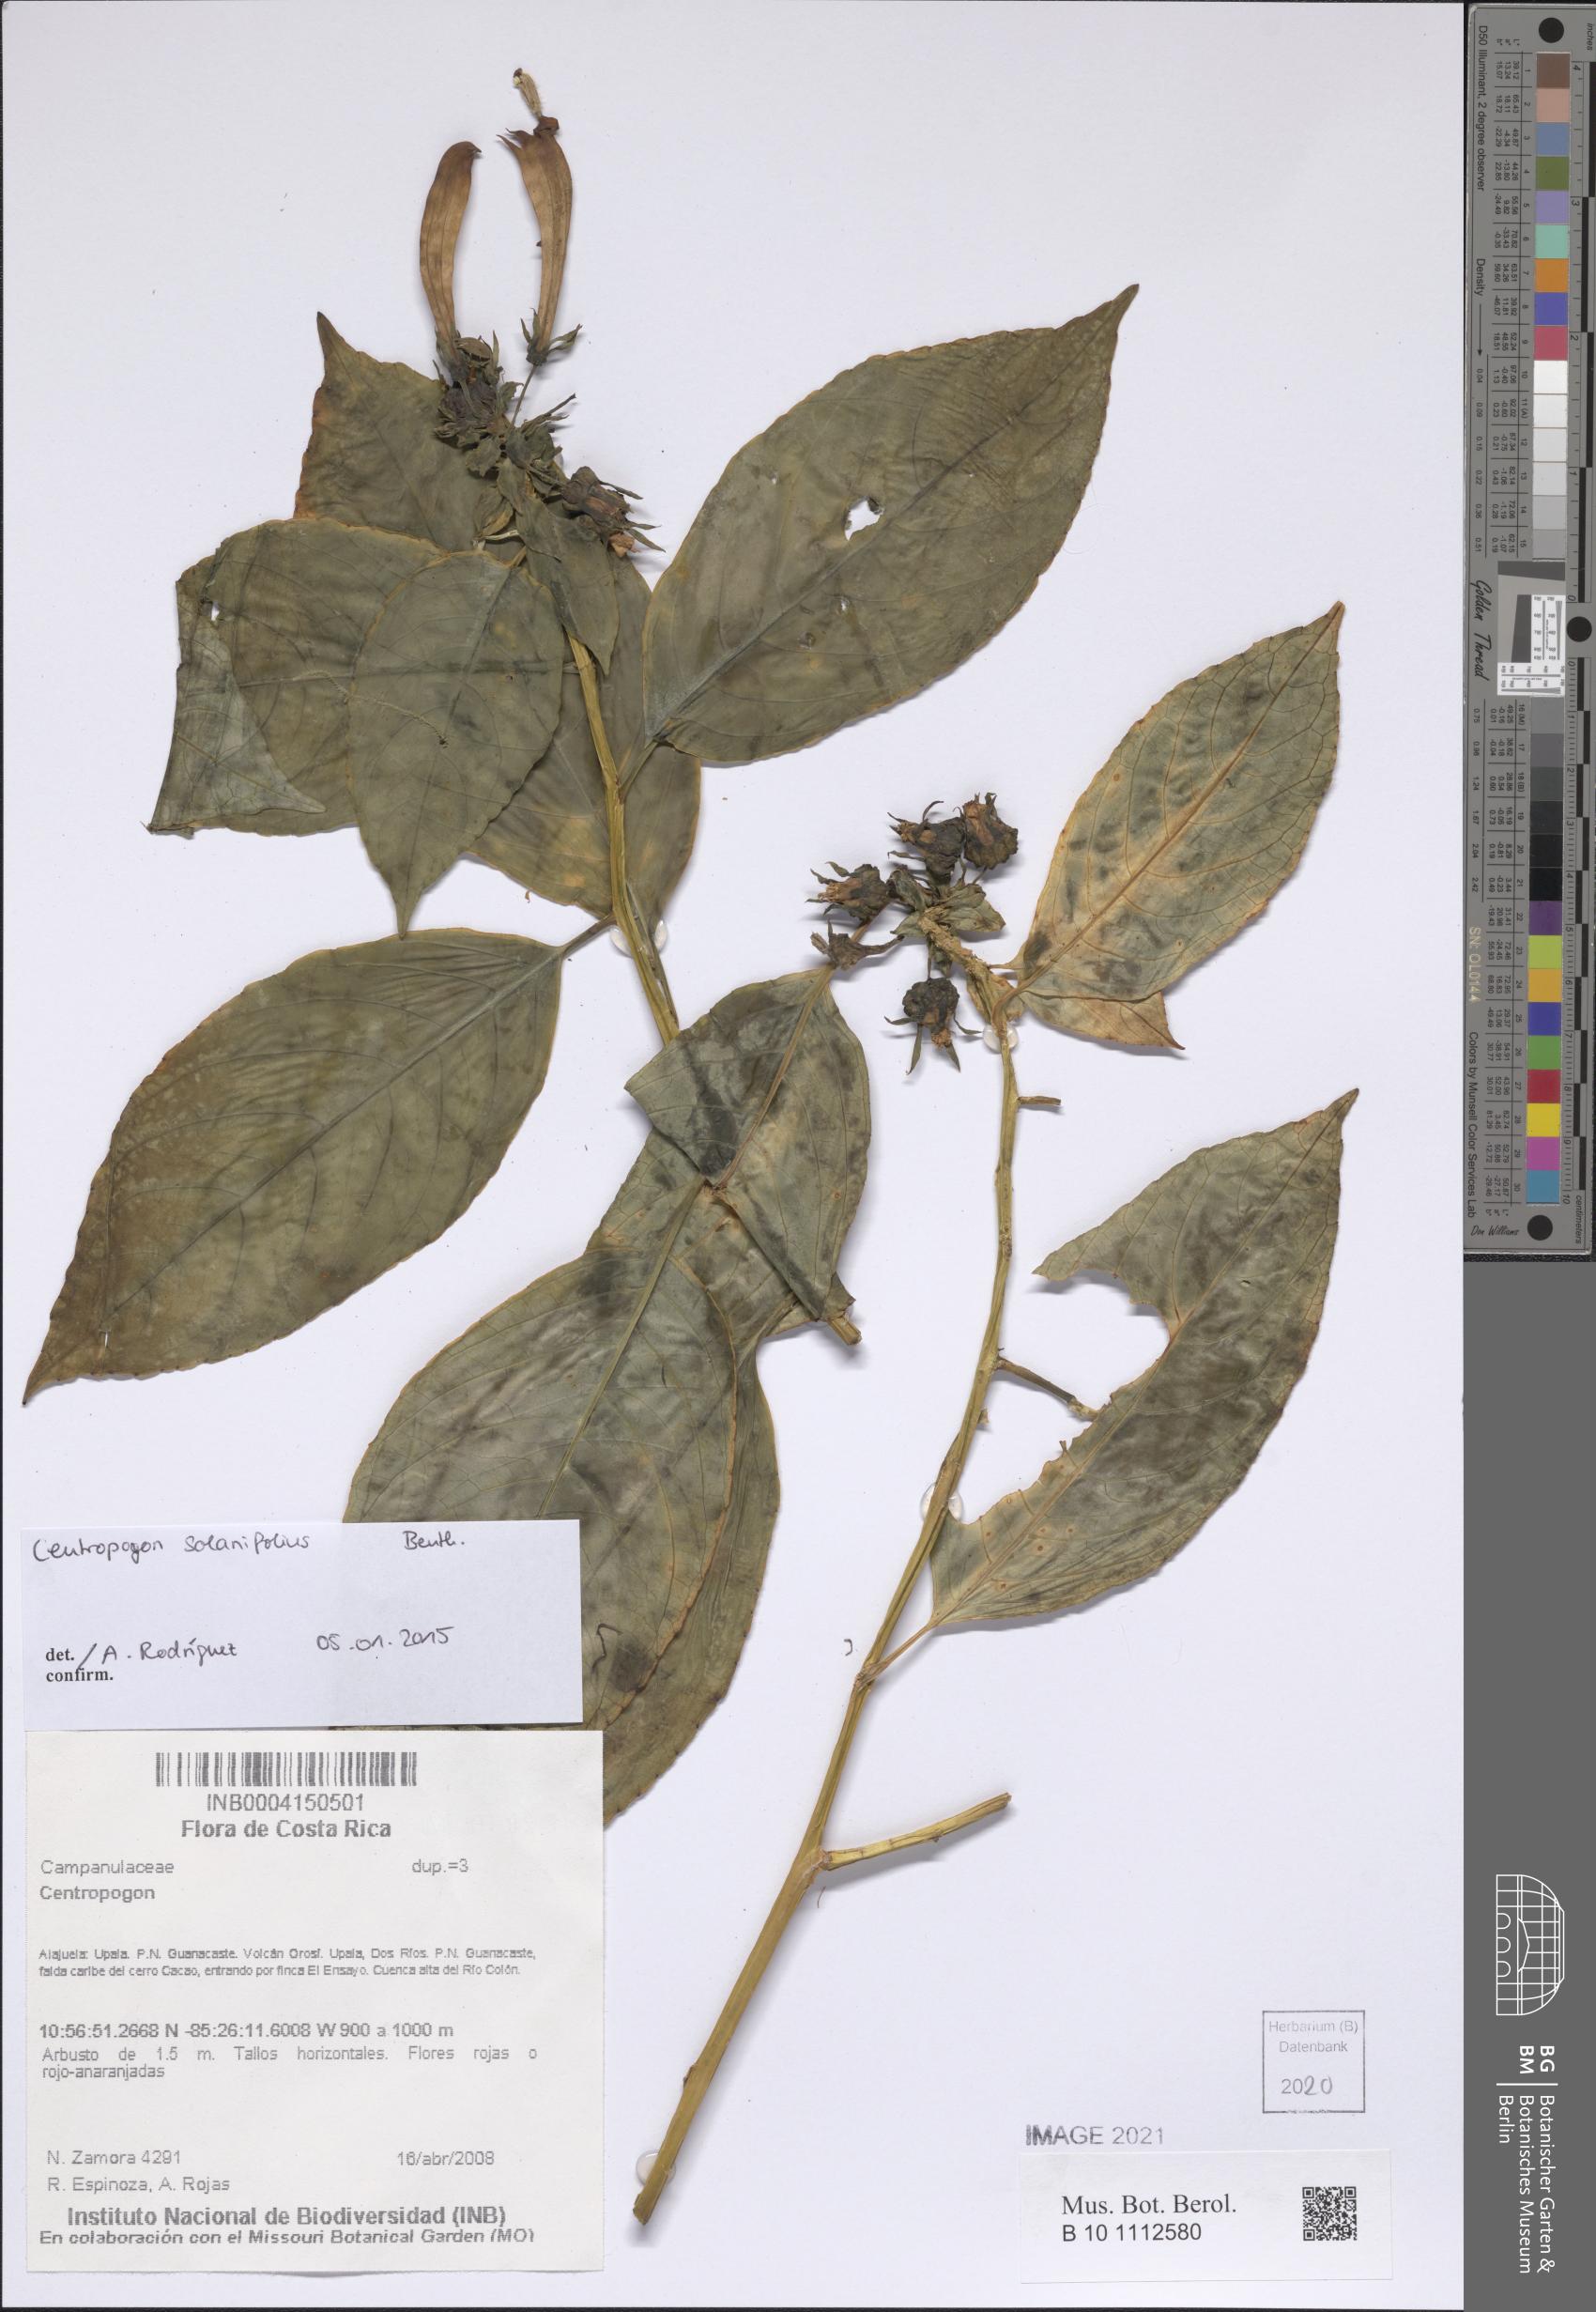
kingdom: Plantae
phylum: Tracheophyta
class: Magnoliopsida
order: Asterales
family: Campanulaceae
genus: Centropogon
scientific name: Centropogon solanifolius
